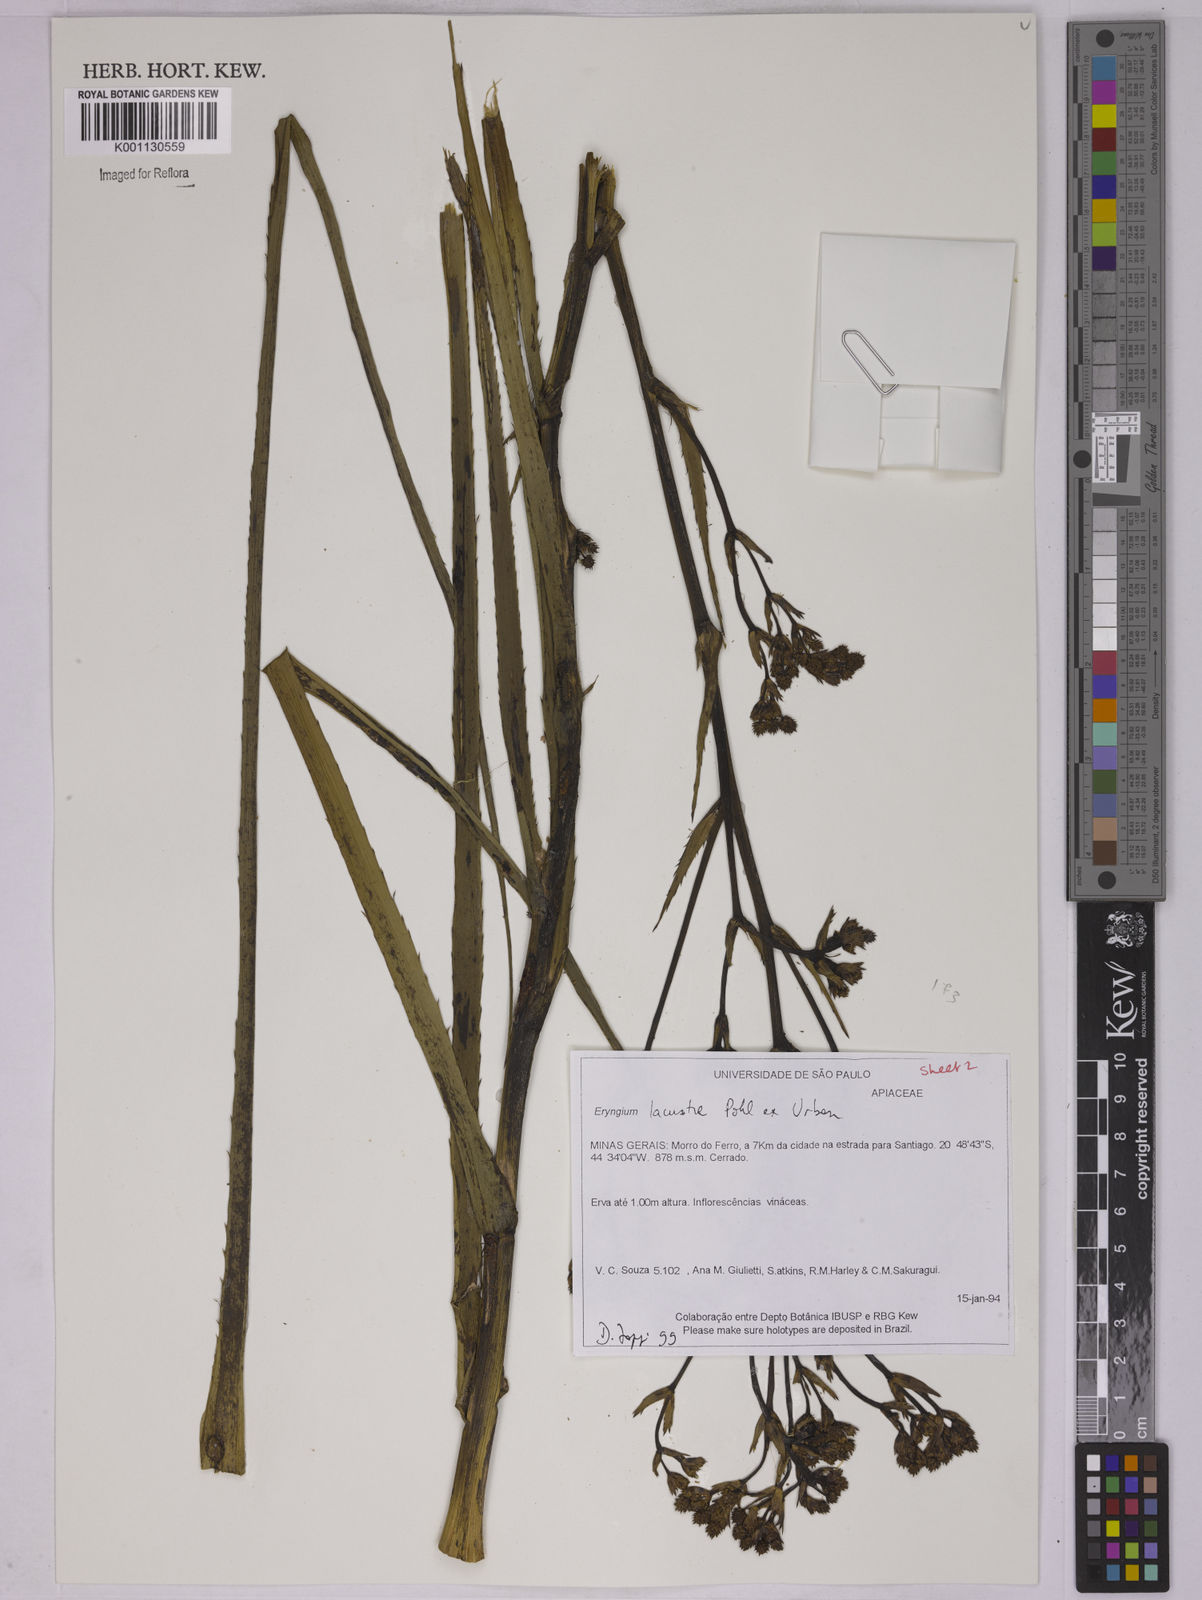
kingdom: Plantae
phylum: Tracheophyta
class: Magnoliopsida
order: Apiales
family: Apiaceae
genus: Eryngium
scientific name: Eryngium lacustre
